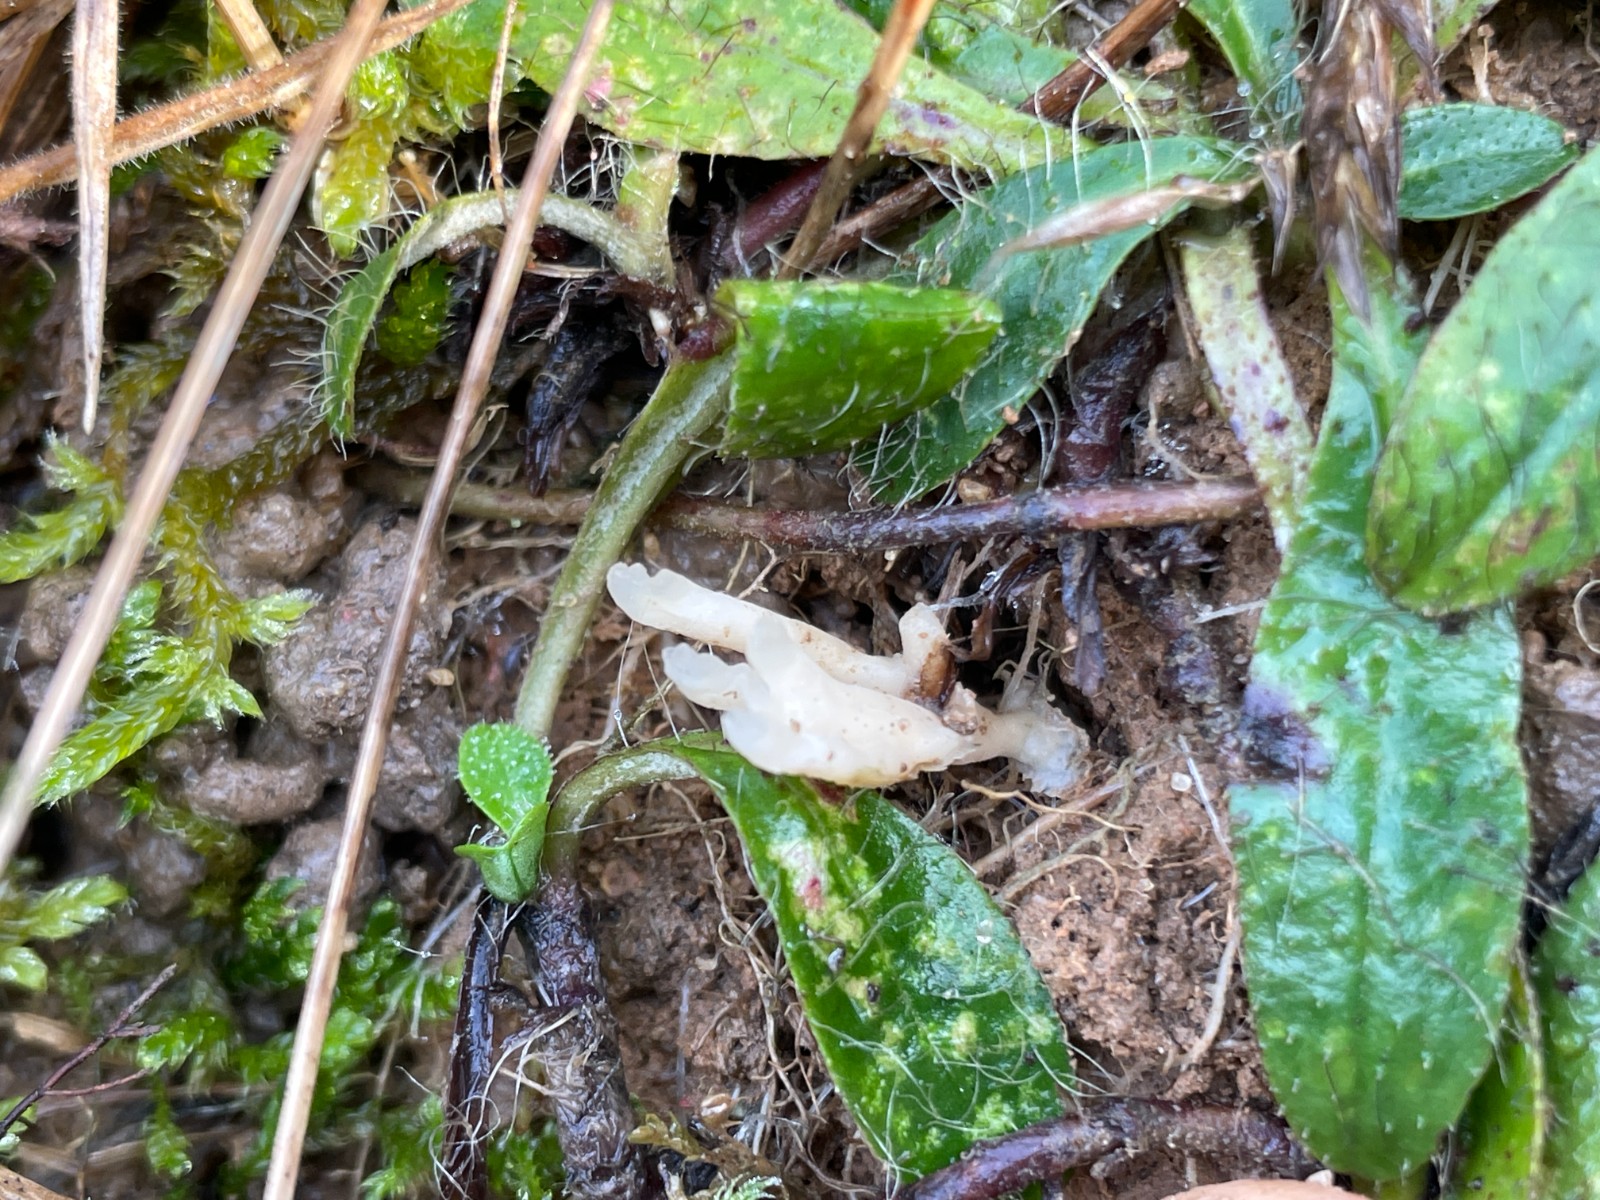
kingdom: Fungi
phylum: Basidiomycota
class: Agaricomycetes
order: Tremellodendropsidales
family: Tremellodendropsidaceae
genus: Tremellodendropsis
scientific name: Tremellodendropsis tuberosa
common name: bævrekølle
